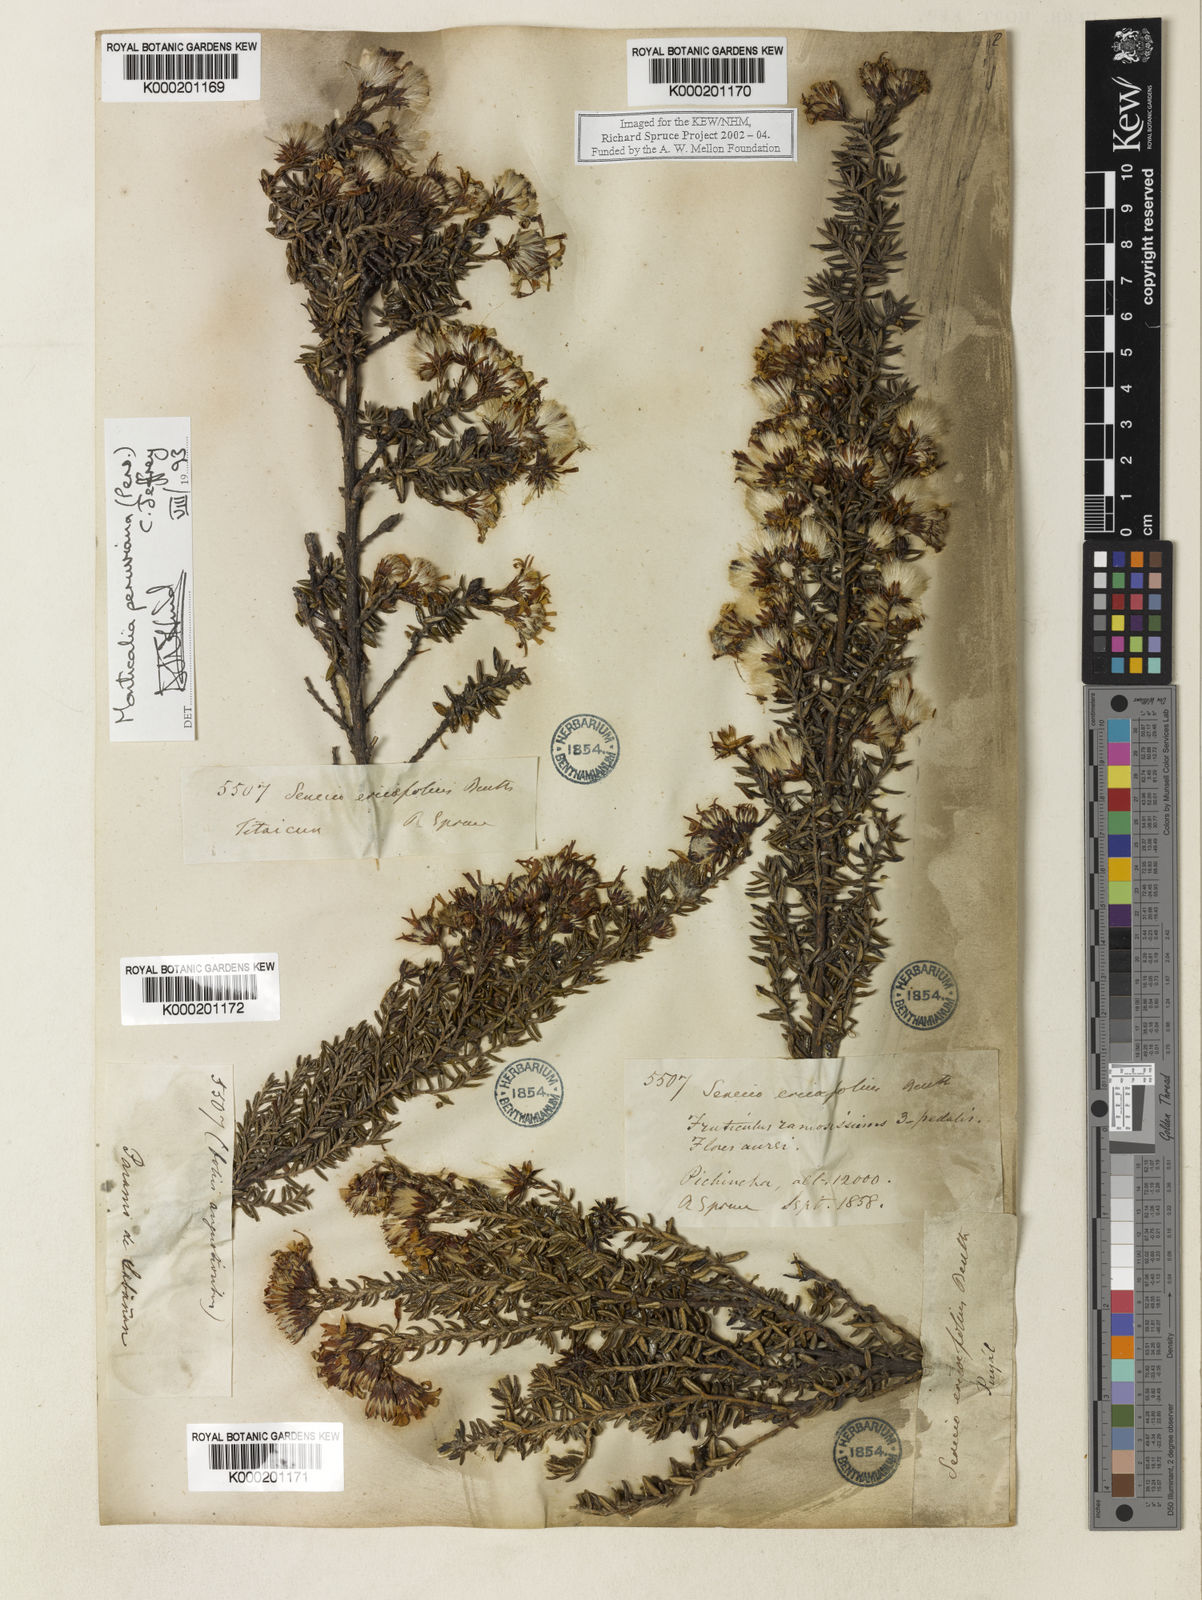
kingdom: Plantae
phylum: Tracheophyta
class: Magnoliopsida
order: Asterales
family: Asteraceae
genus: Monticalia
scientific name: Monticalia peruviana
